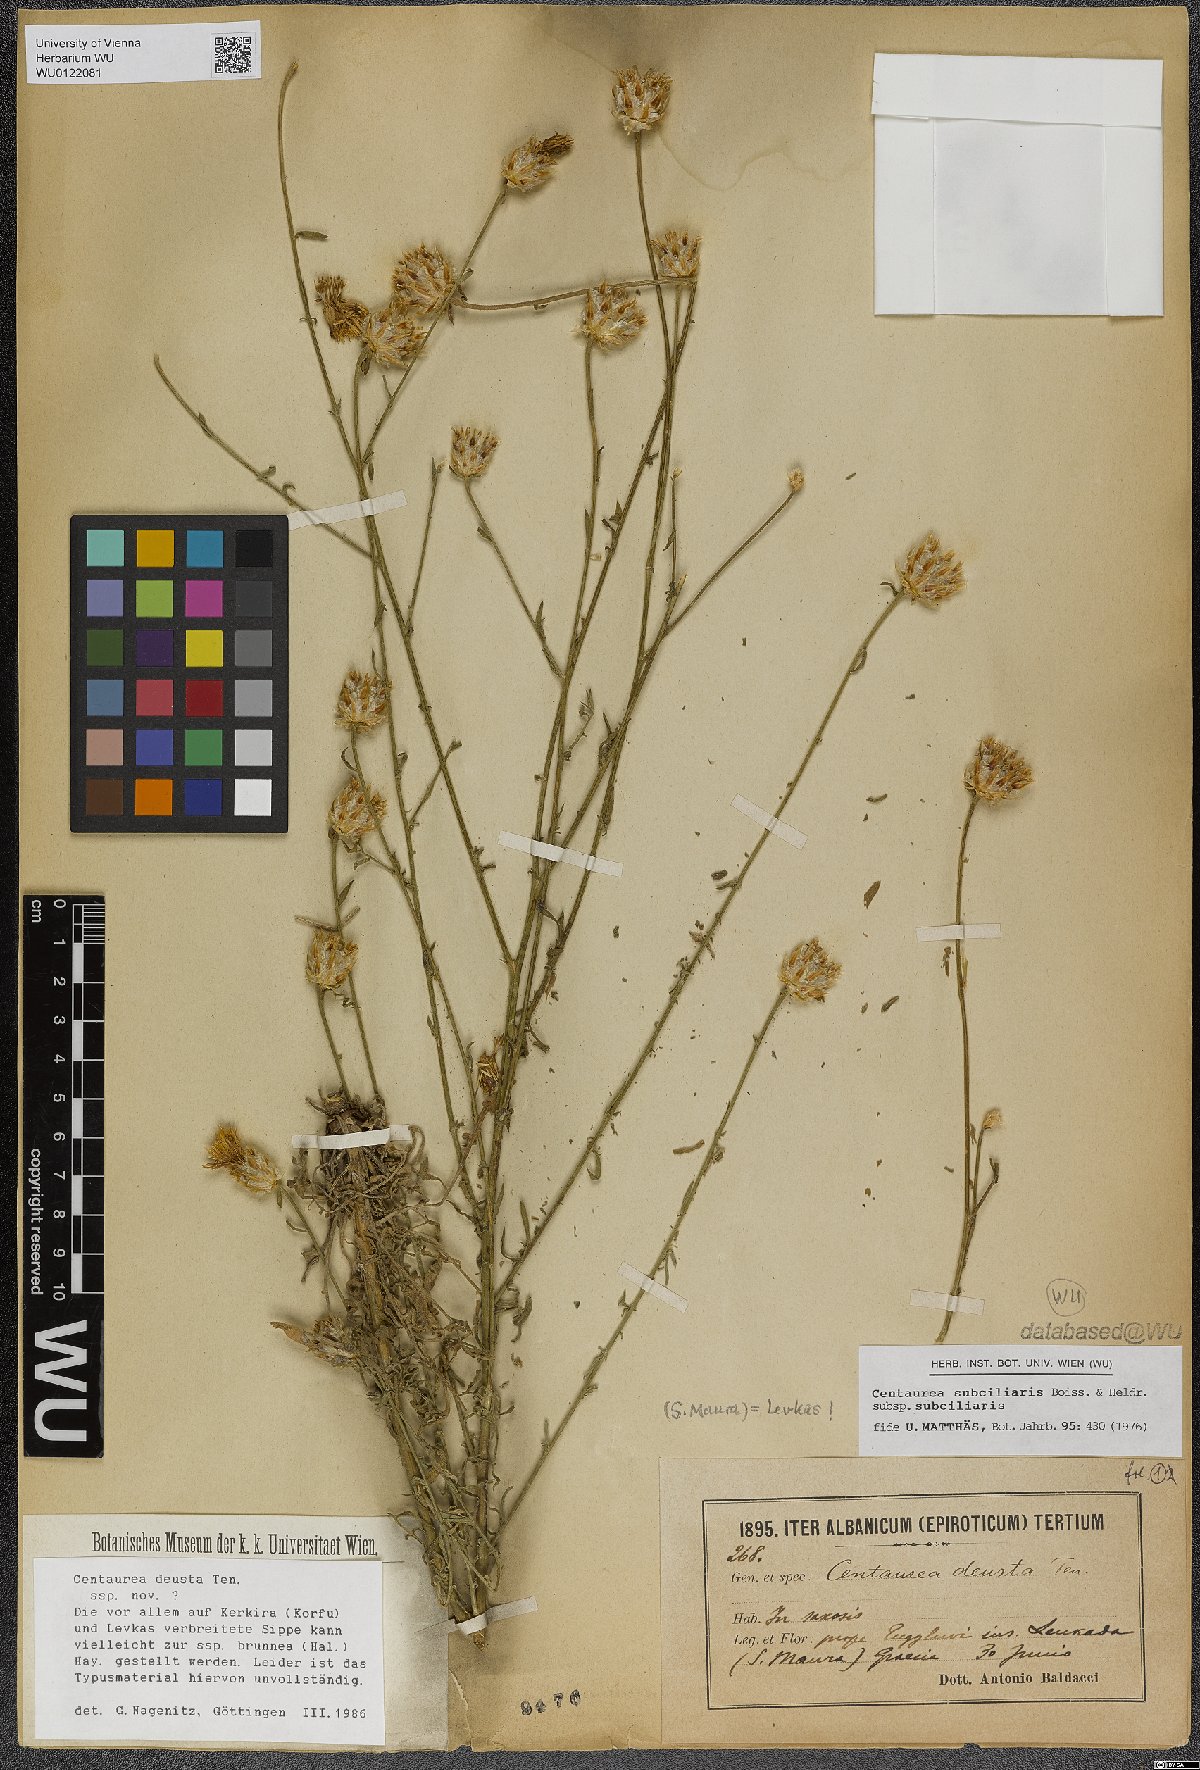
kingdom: Plantae
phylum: Tracheophyta
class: Magnoliopsida
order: Asterales
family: Asteraceae
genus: Centaurea
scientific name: Centaurea deusta
